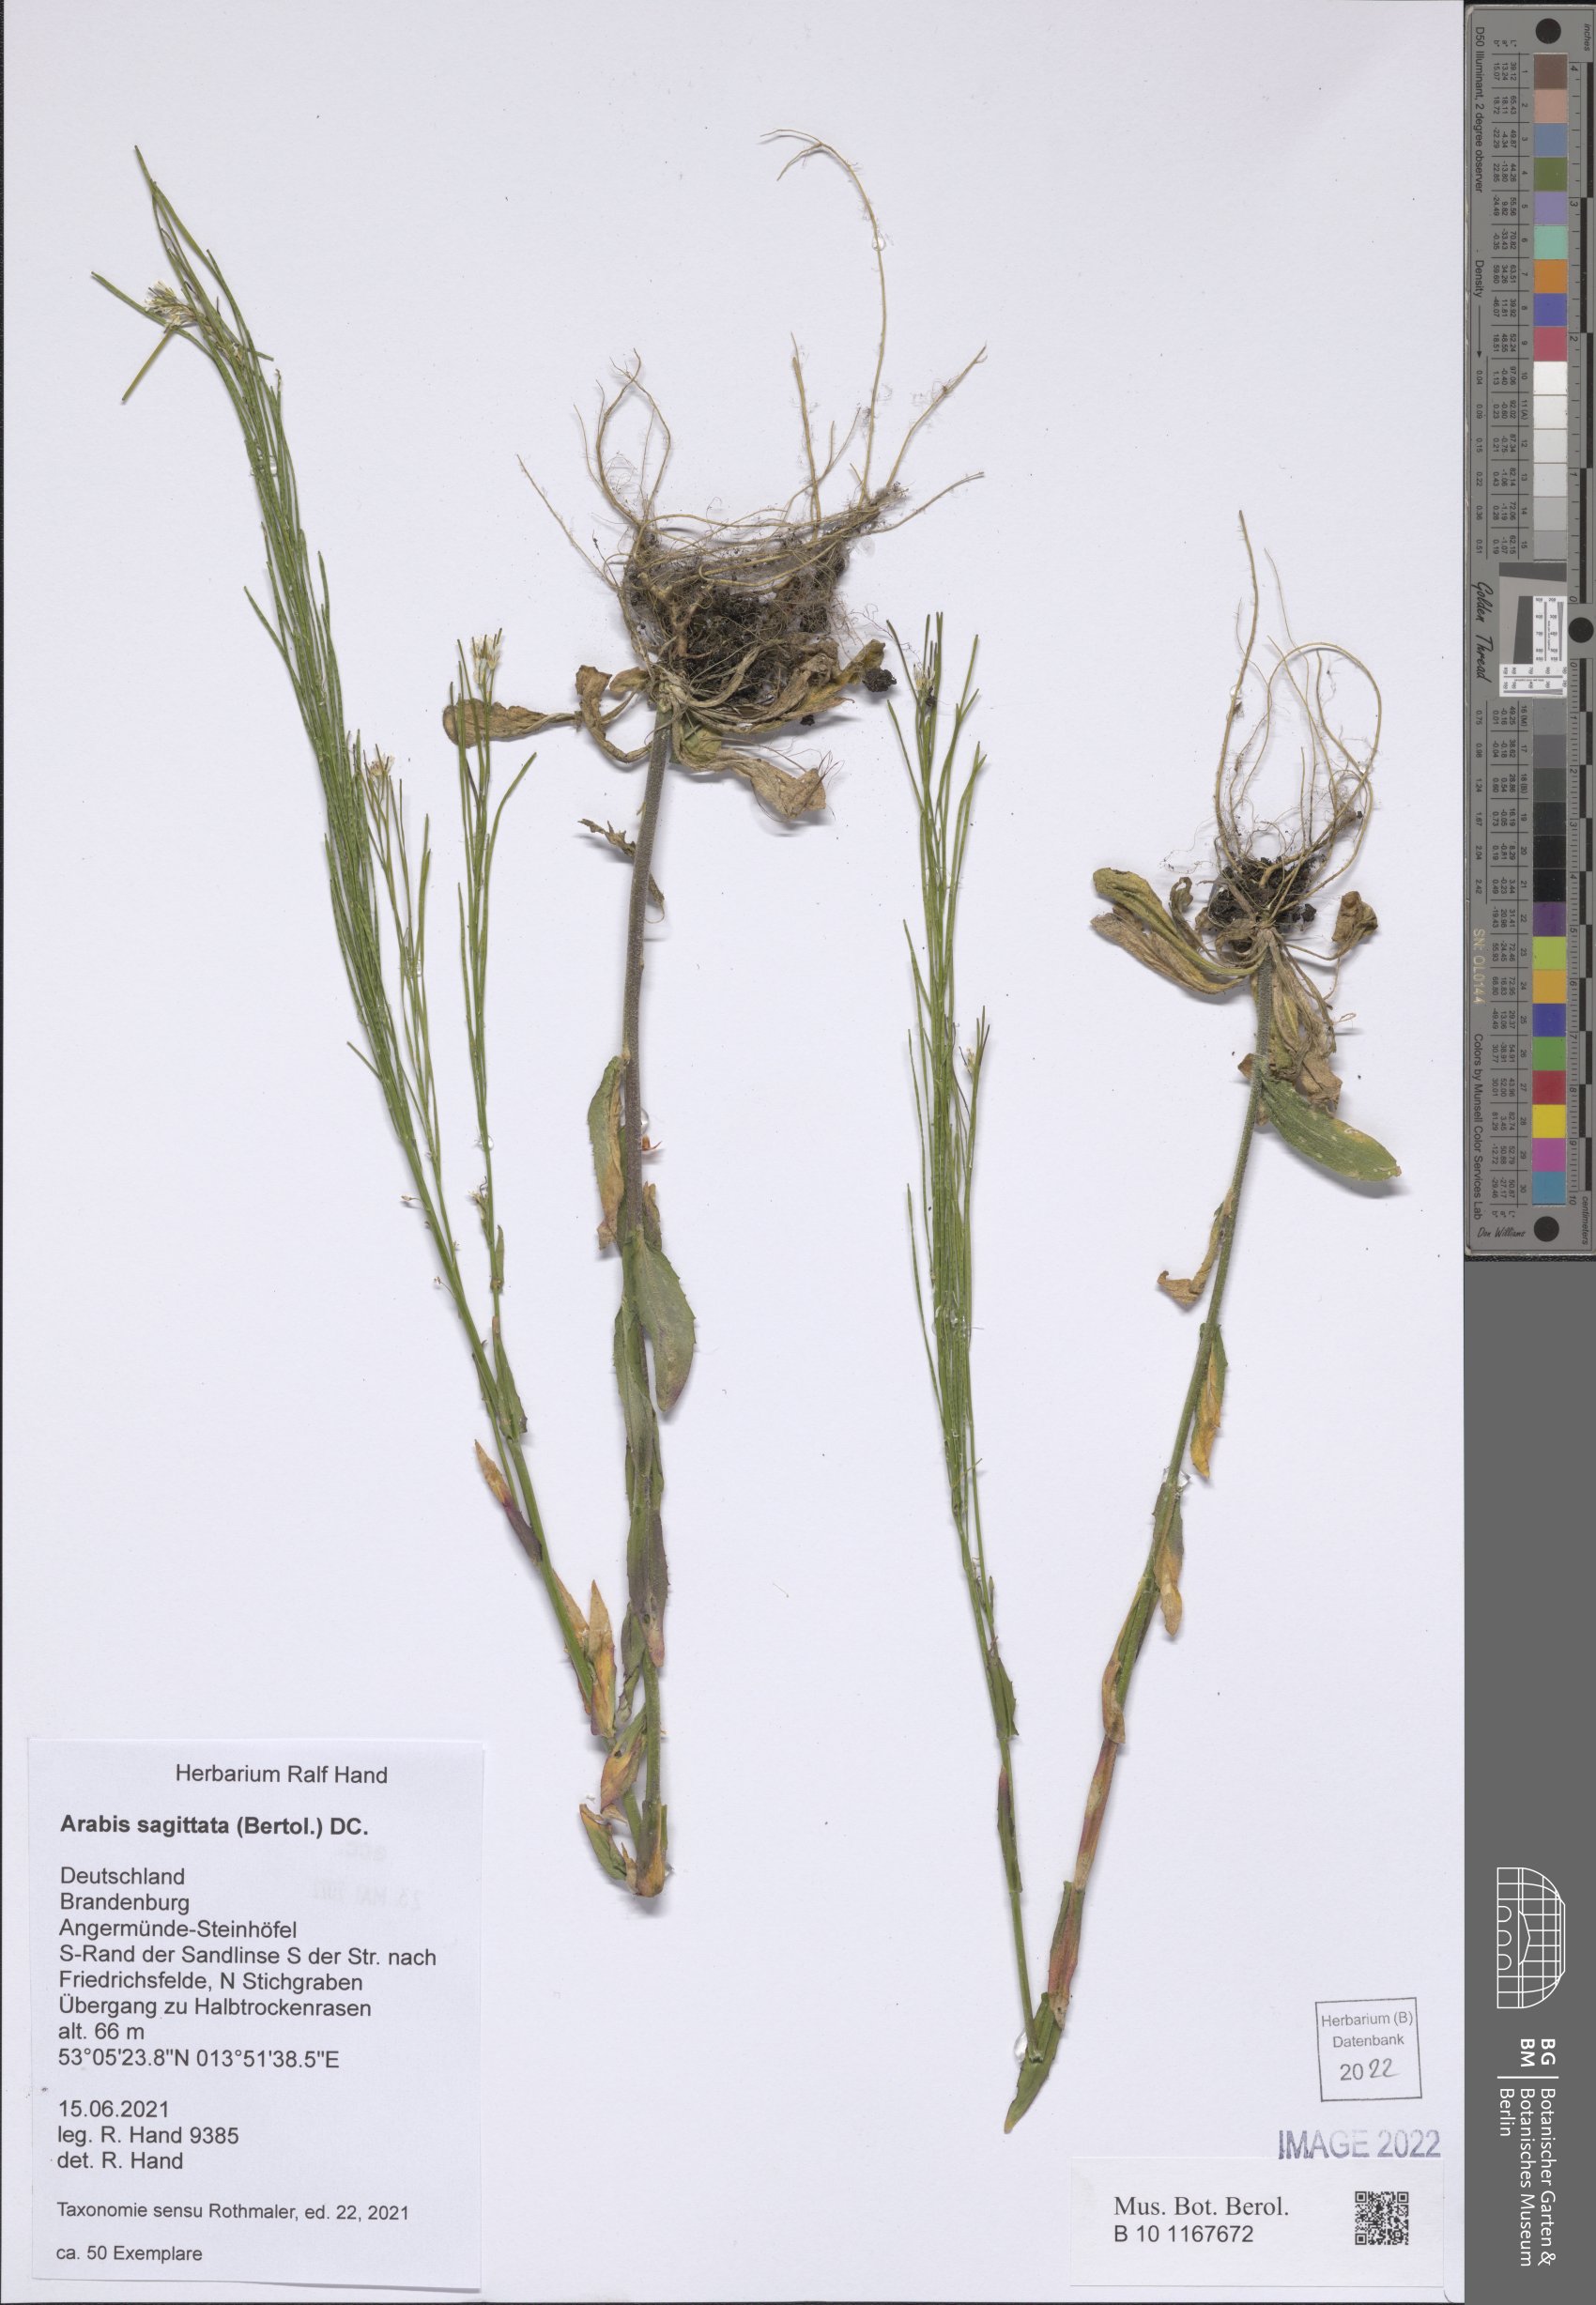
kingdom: Plantae
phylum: Tracheophyta
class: Magnoliopsida
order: Brassicales
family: Brassicaceae
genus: Arabis
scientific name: Arabis sagittata
